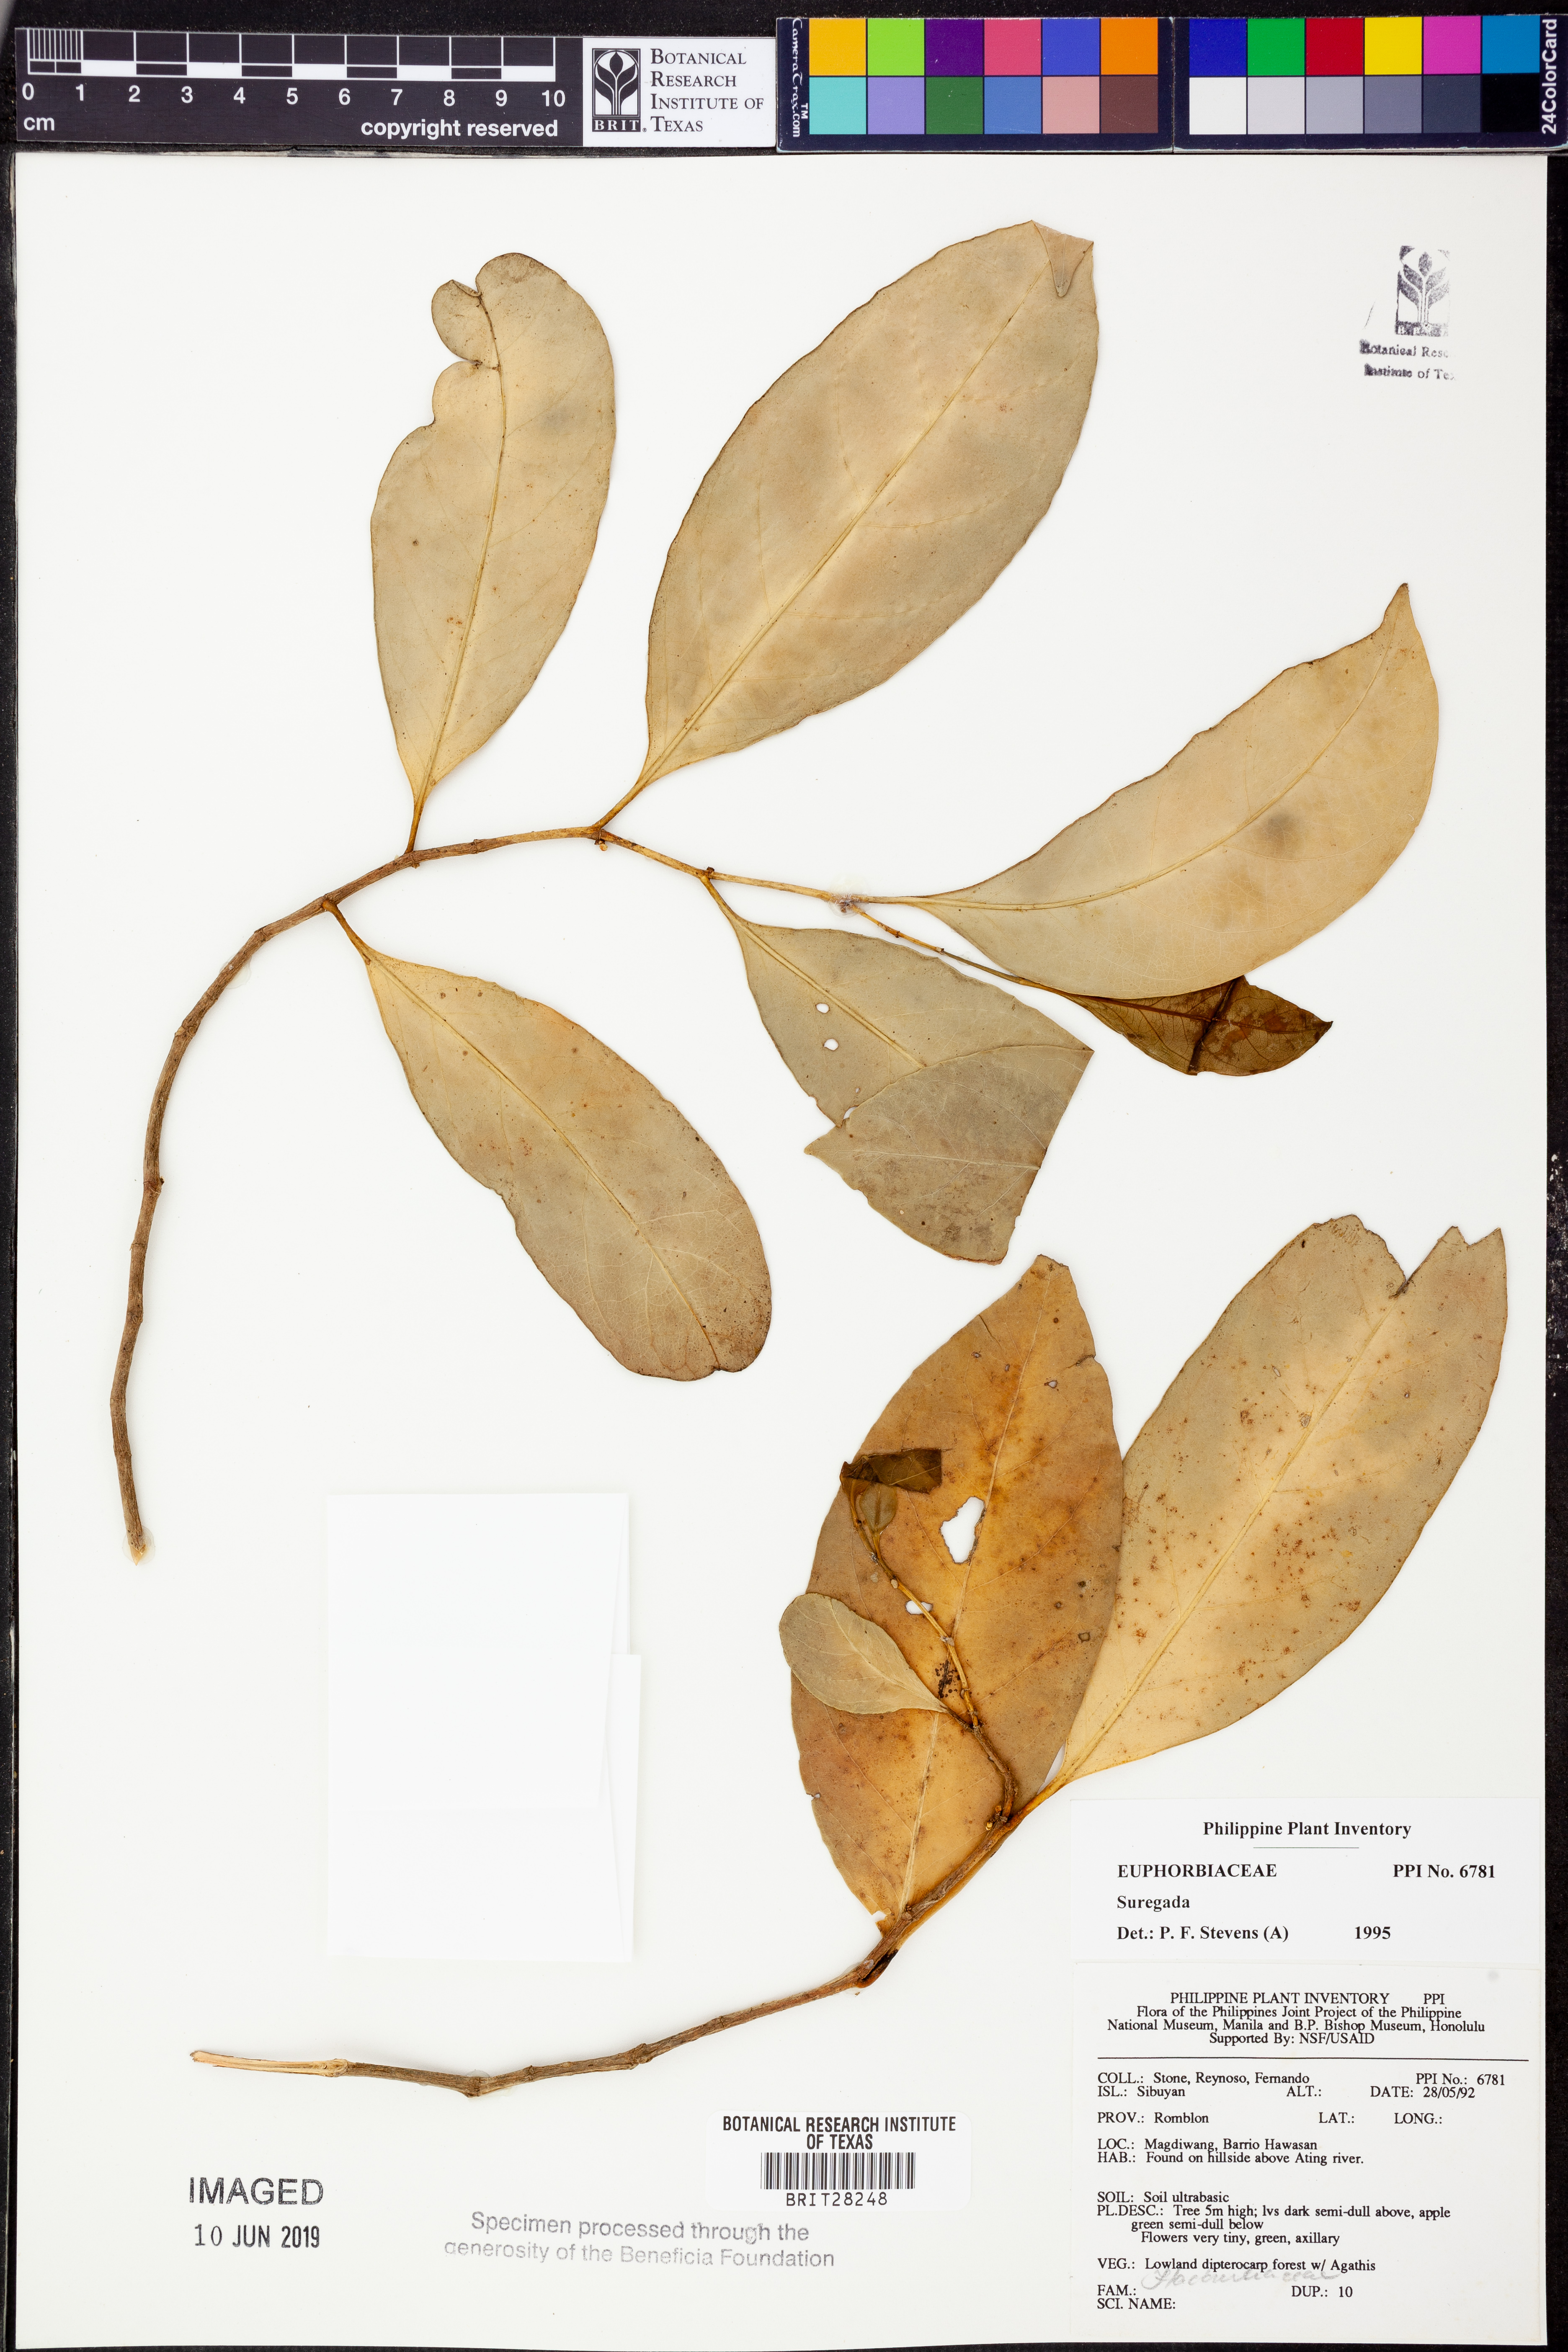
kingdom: Plantae
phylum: Tracheophyta
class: Magnoliopsida
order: Malpighiales
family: Euphorbiaceae
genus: Suregada
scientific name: Suregada
